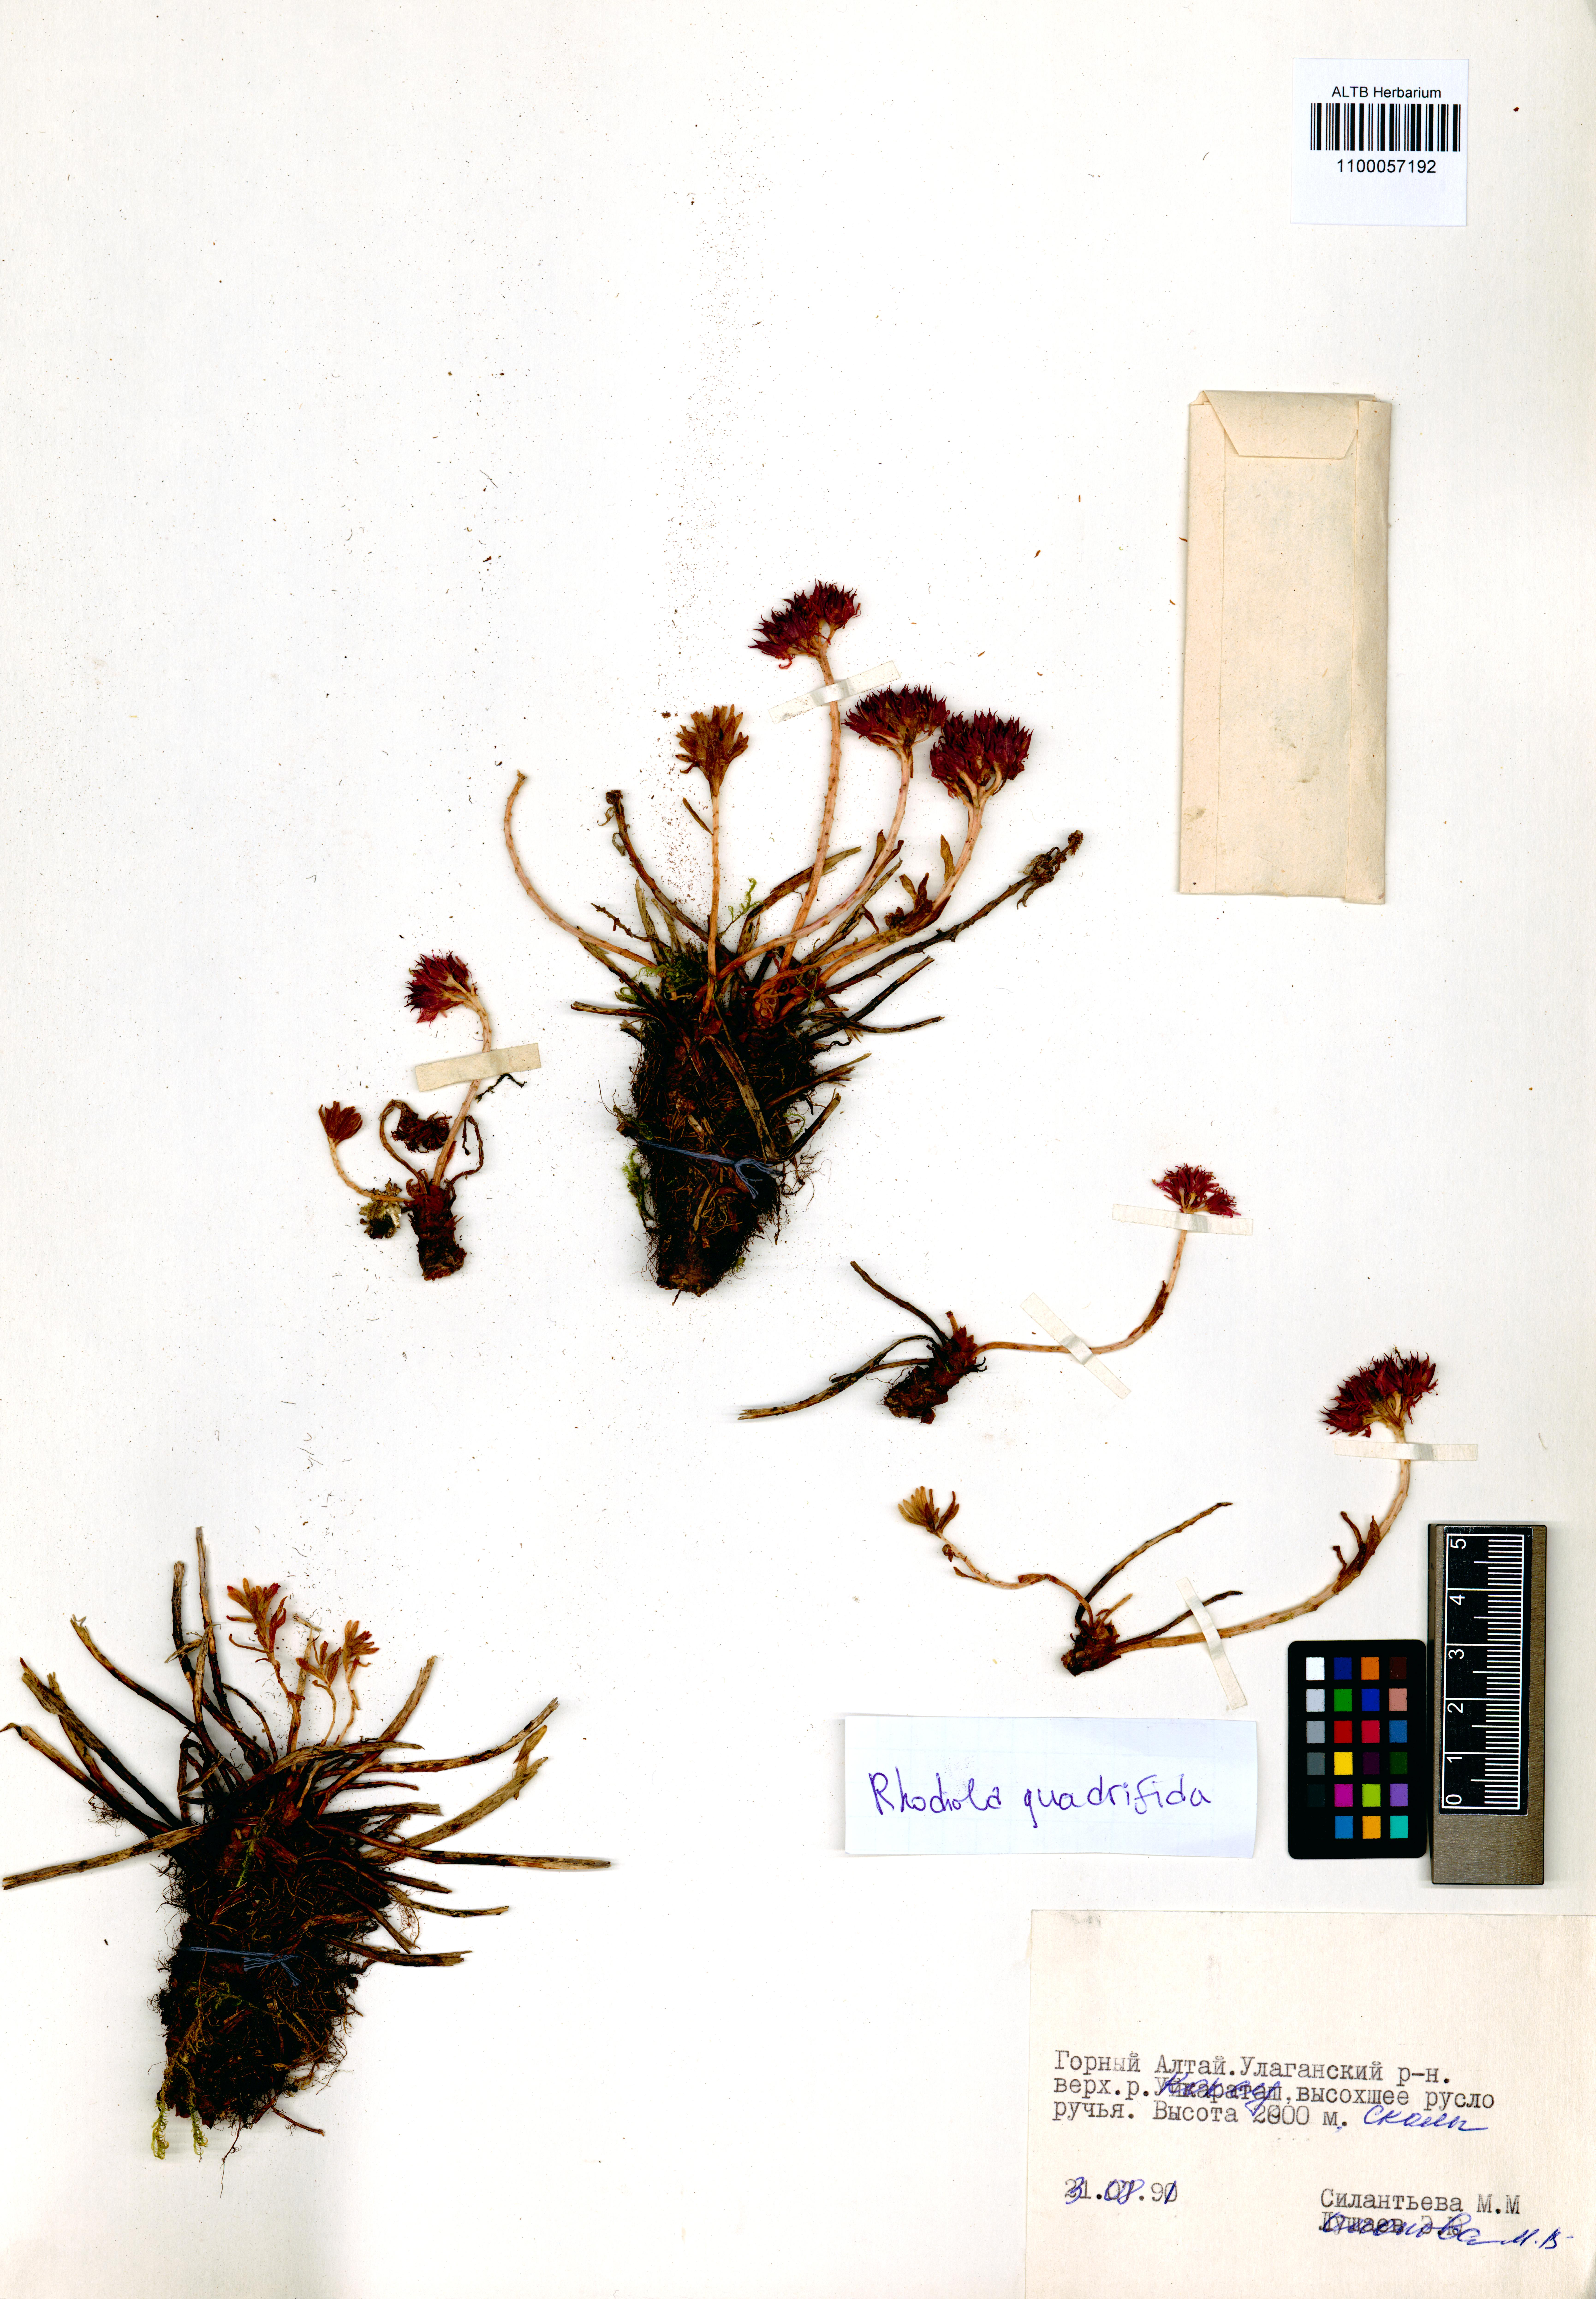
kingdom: Plantae
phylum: Tracheophyta
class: Magnoliopsida
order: Saxifragales
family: Crassulaceae
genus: Rhodiola
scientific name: Rhodiola quadrifida
